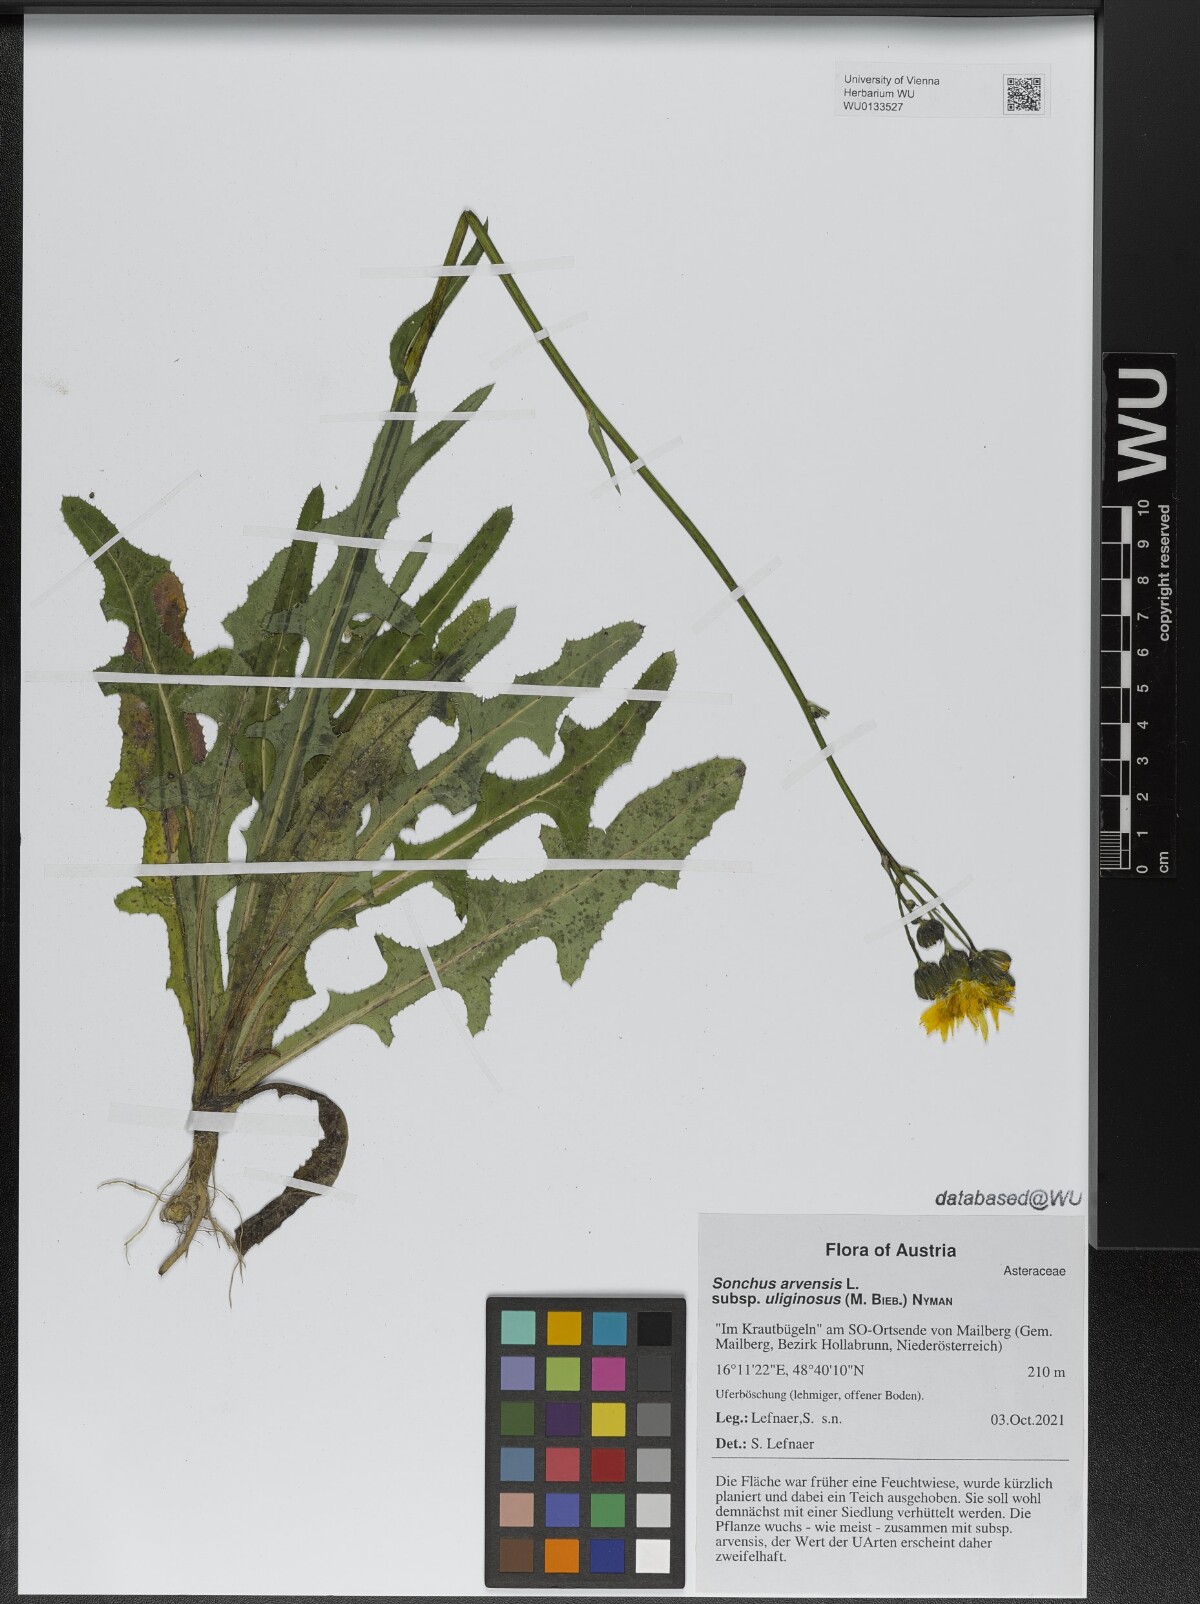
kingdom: Plantae
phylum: Tracheophyta
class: Magnoliopsida
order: Asterales
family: Asteraceae
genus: Sonchus
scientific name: Sonchus arvensis
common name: Perennial sow-thistle
